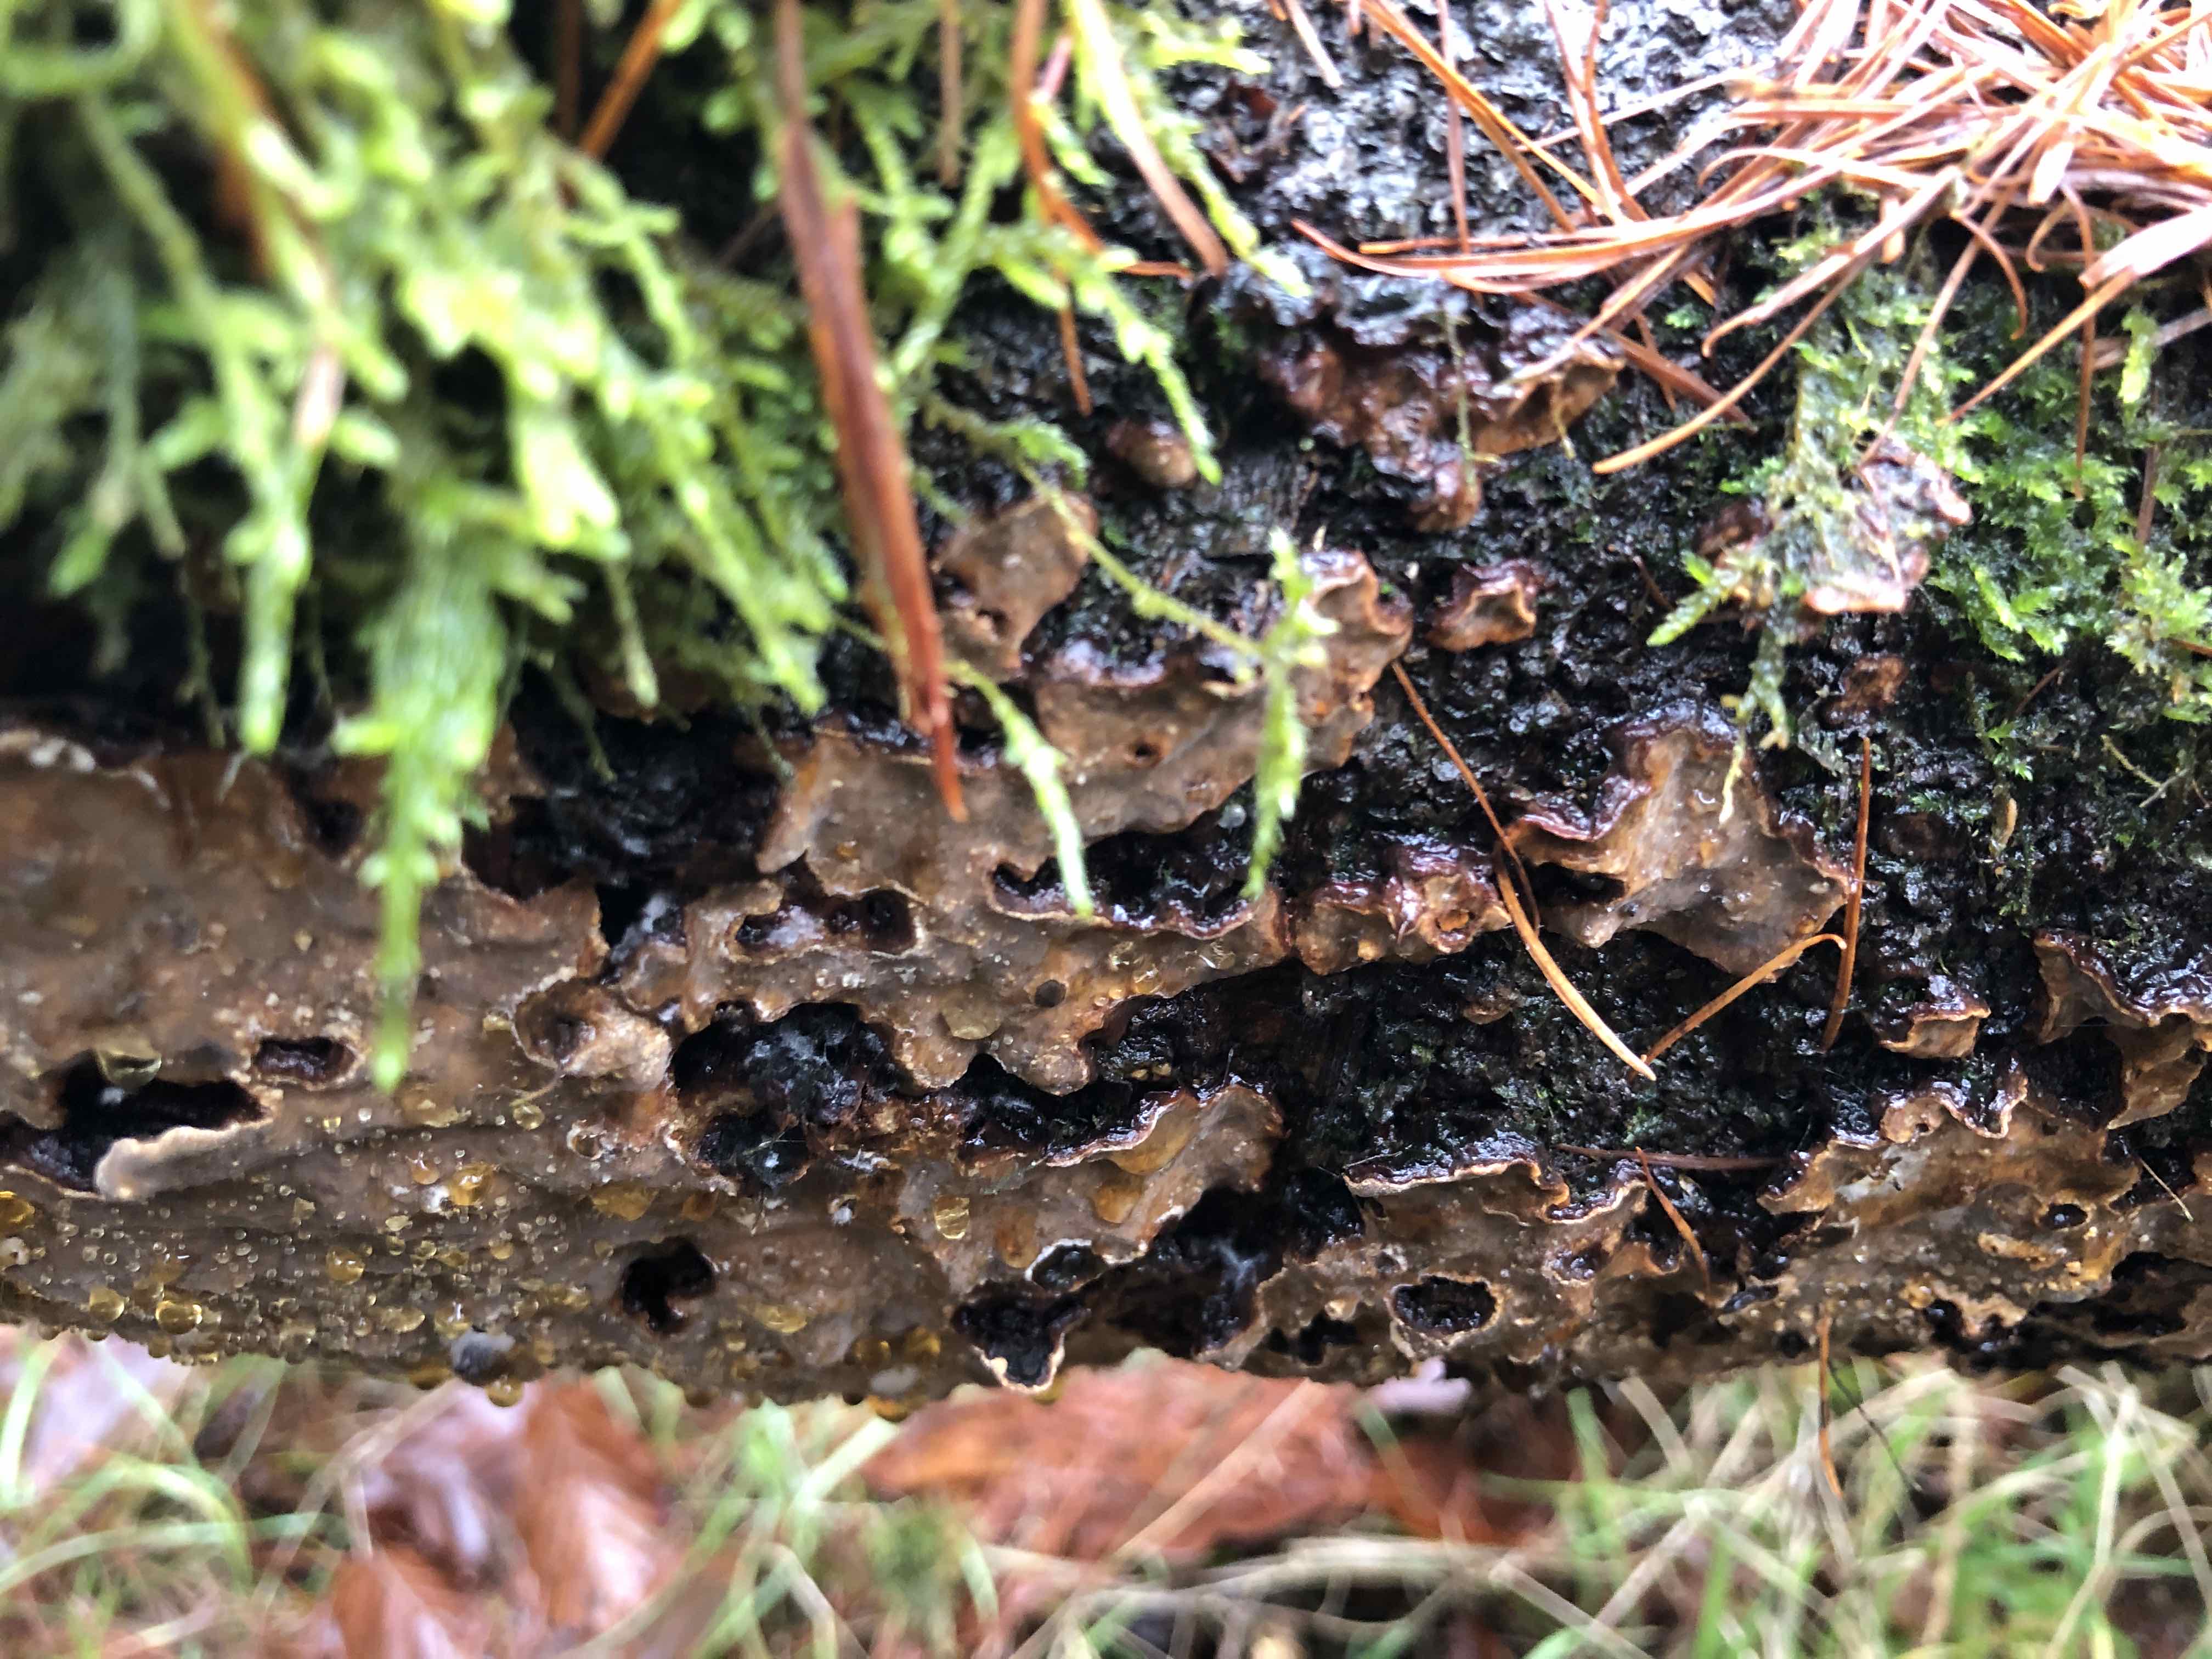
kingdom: Fungi
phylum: Basidiomycota
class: Agaricomycetes
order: Russulales
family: Stereaceae
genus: Stereum
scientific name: Stereum rugosum
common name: rynket lædersvamp
